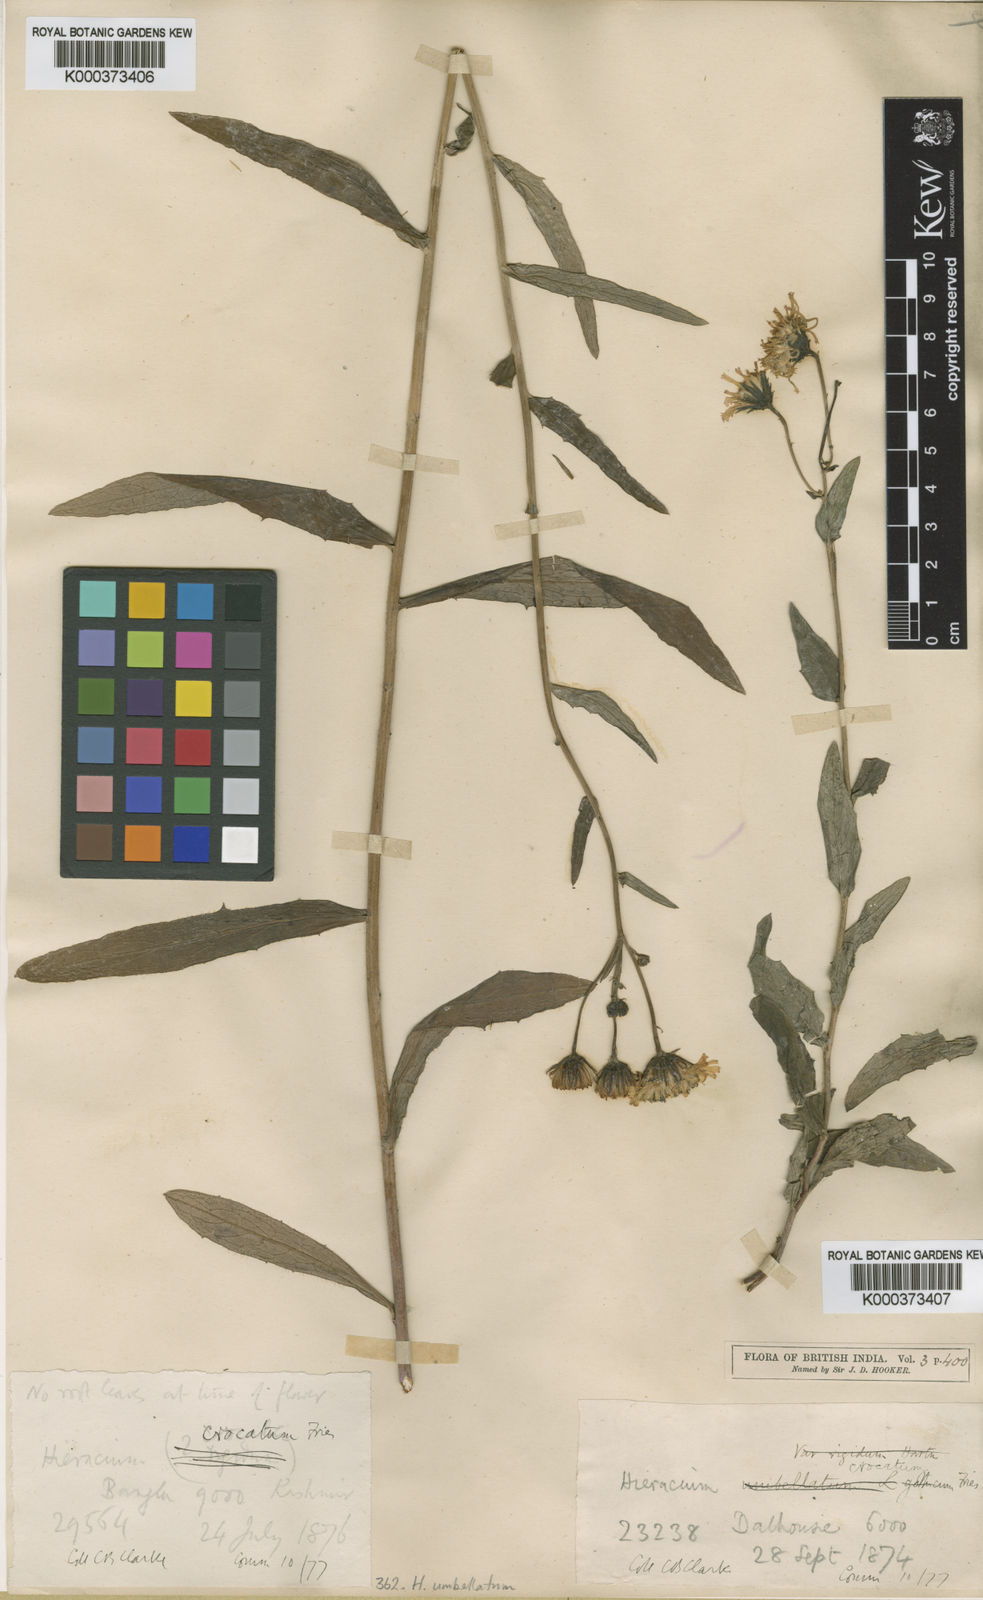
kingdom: Plantae
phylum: Tracheophyta
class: Magnoliopsida
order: Asterales
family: Asteraceae
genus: Hieracium
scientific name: Hieracium umbellatum
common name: Northern hawkweed
